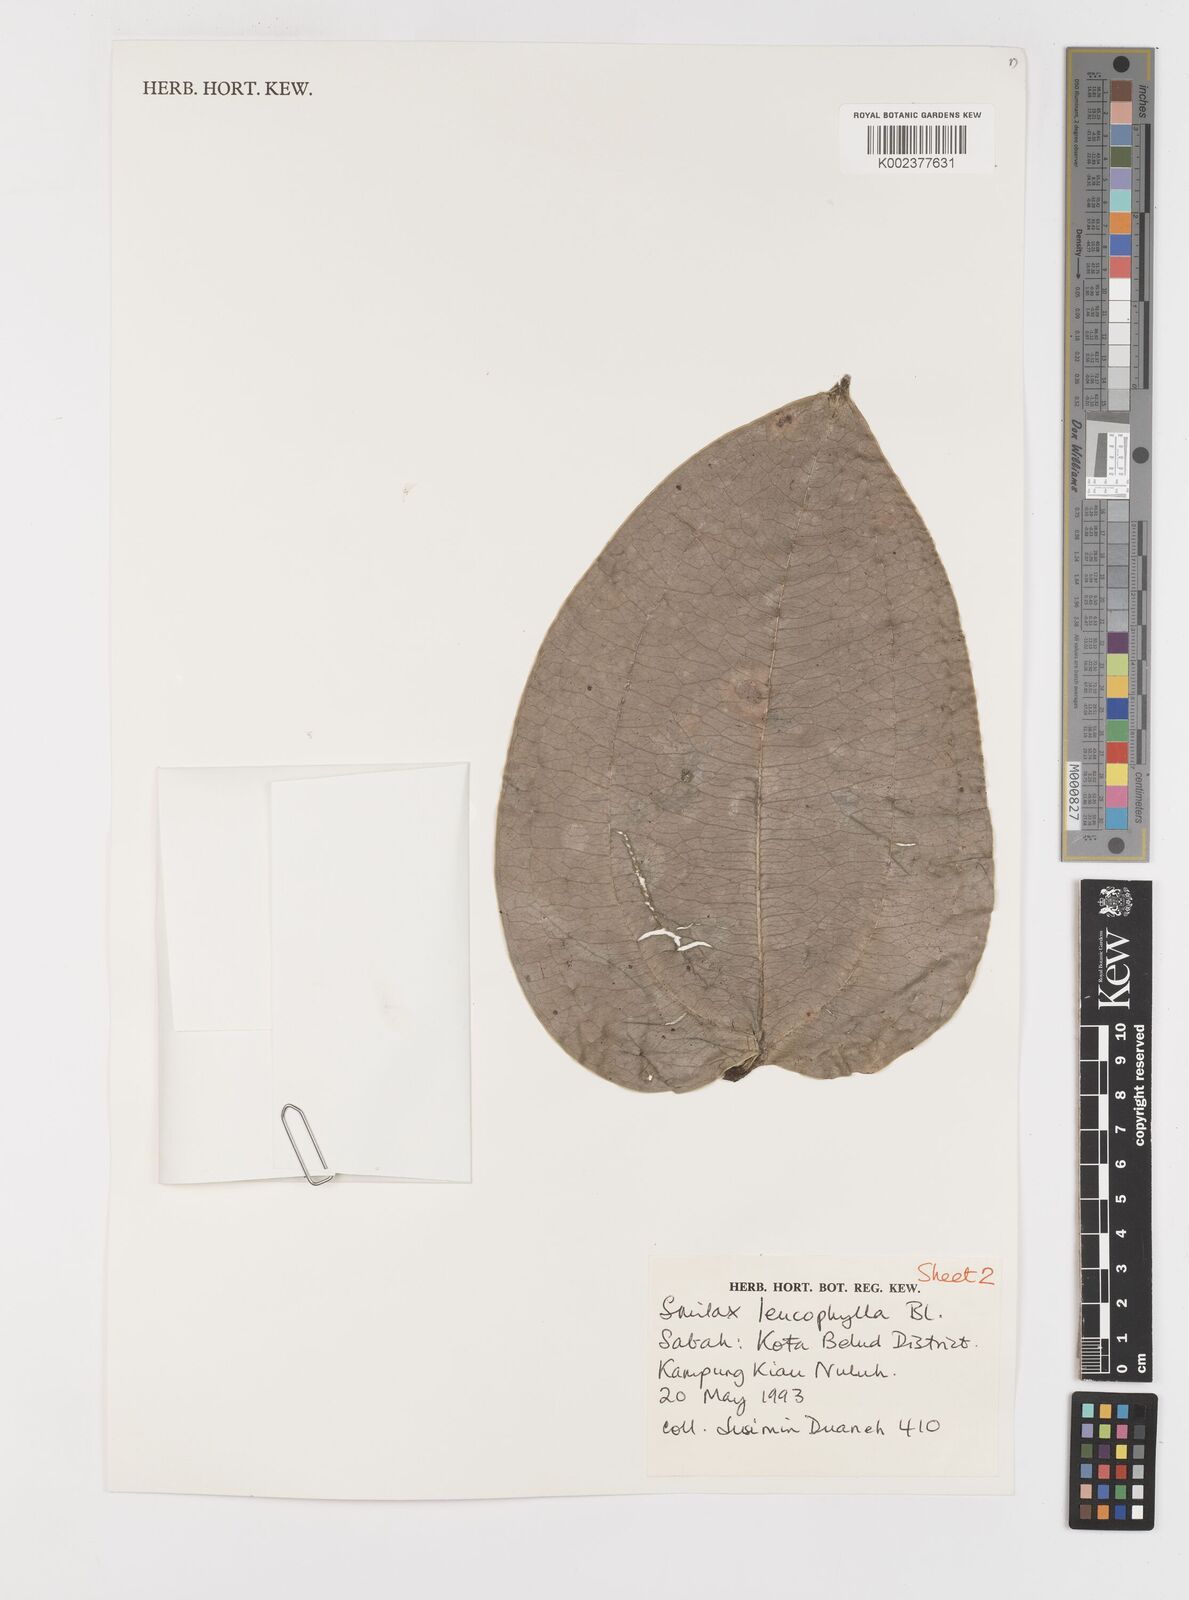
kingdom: Plantae
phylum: Tracheophyta
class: Liliopsida
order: Liliales
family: Smilacaceae
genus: Smilax
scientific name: Smilax leucophylla
